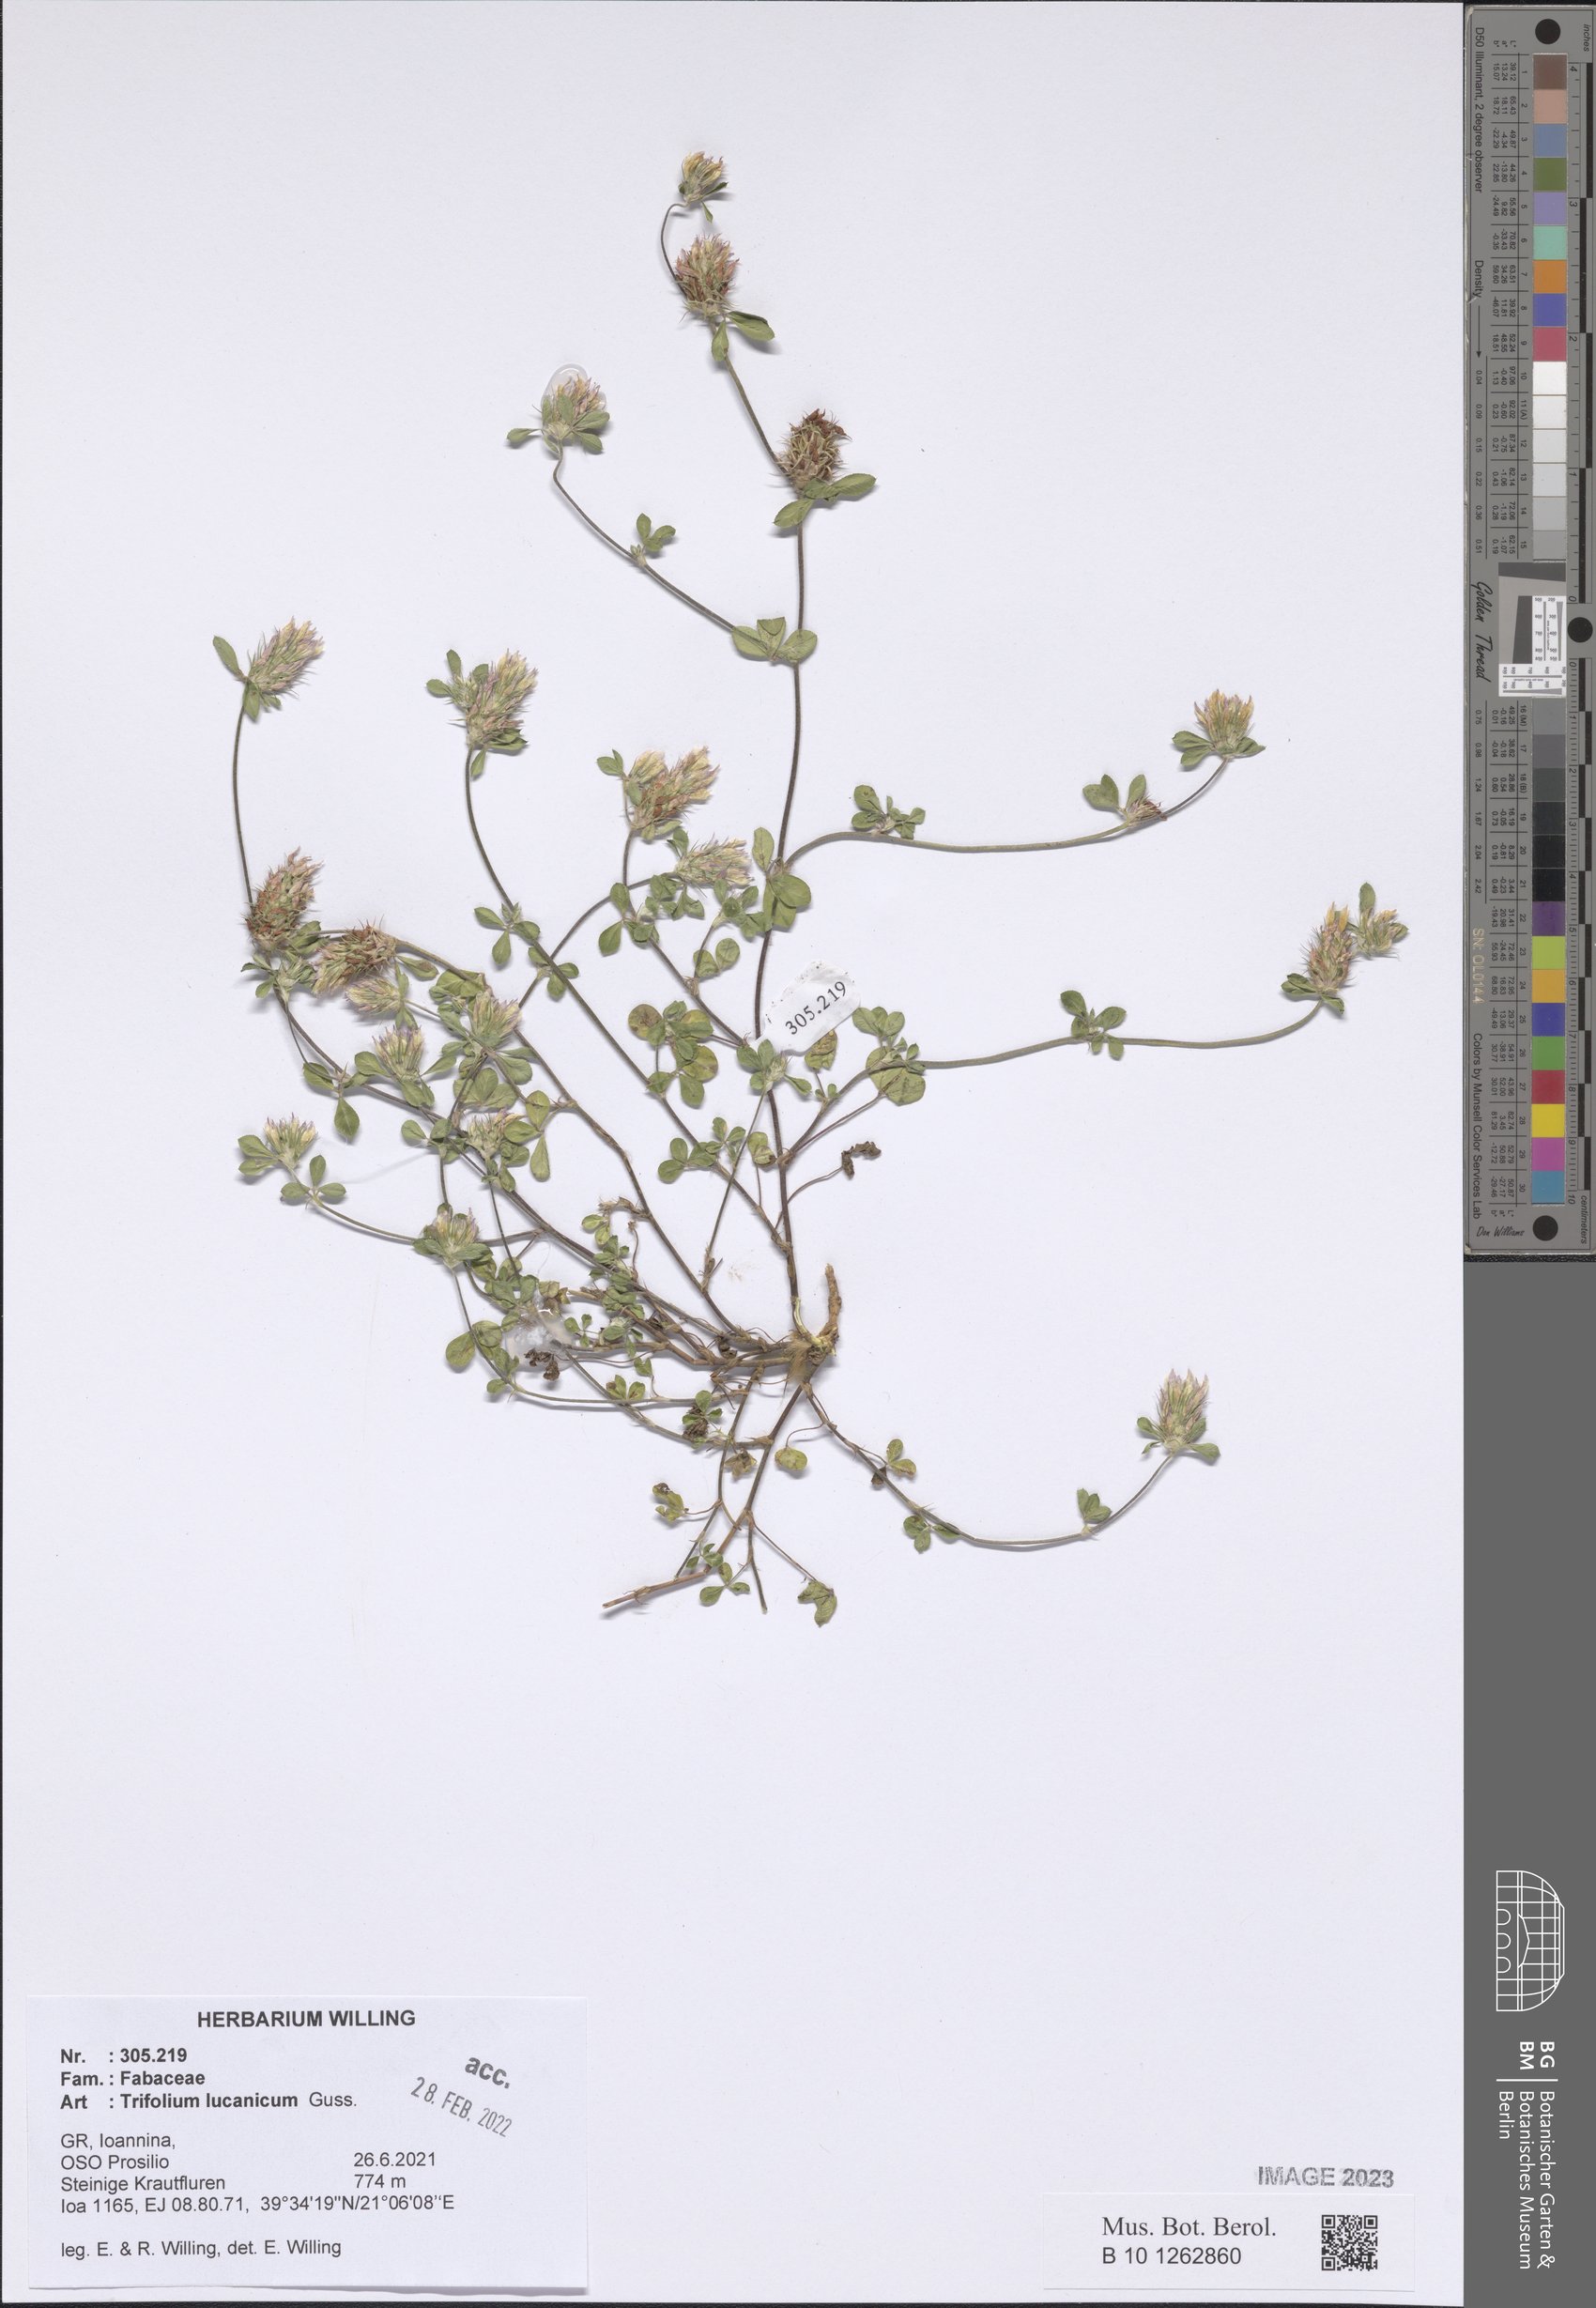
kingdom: Plantae
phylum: Tracheophyta
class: Magnoliopsida
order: Fabales
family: Fabaceae
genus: Trifolium
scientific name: Trifolium lucanicum
